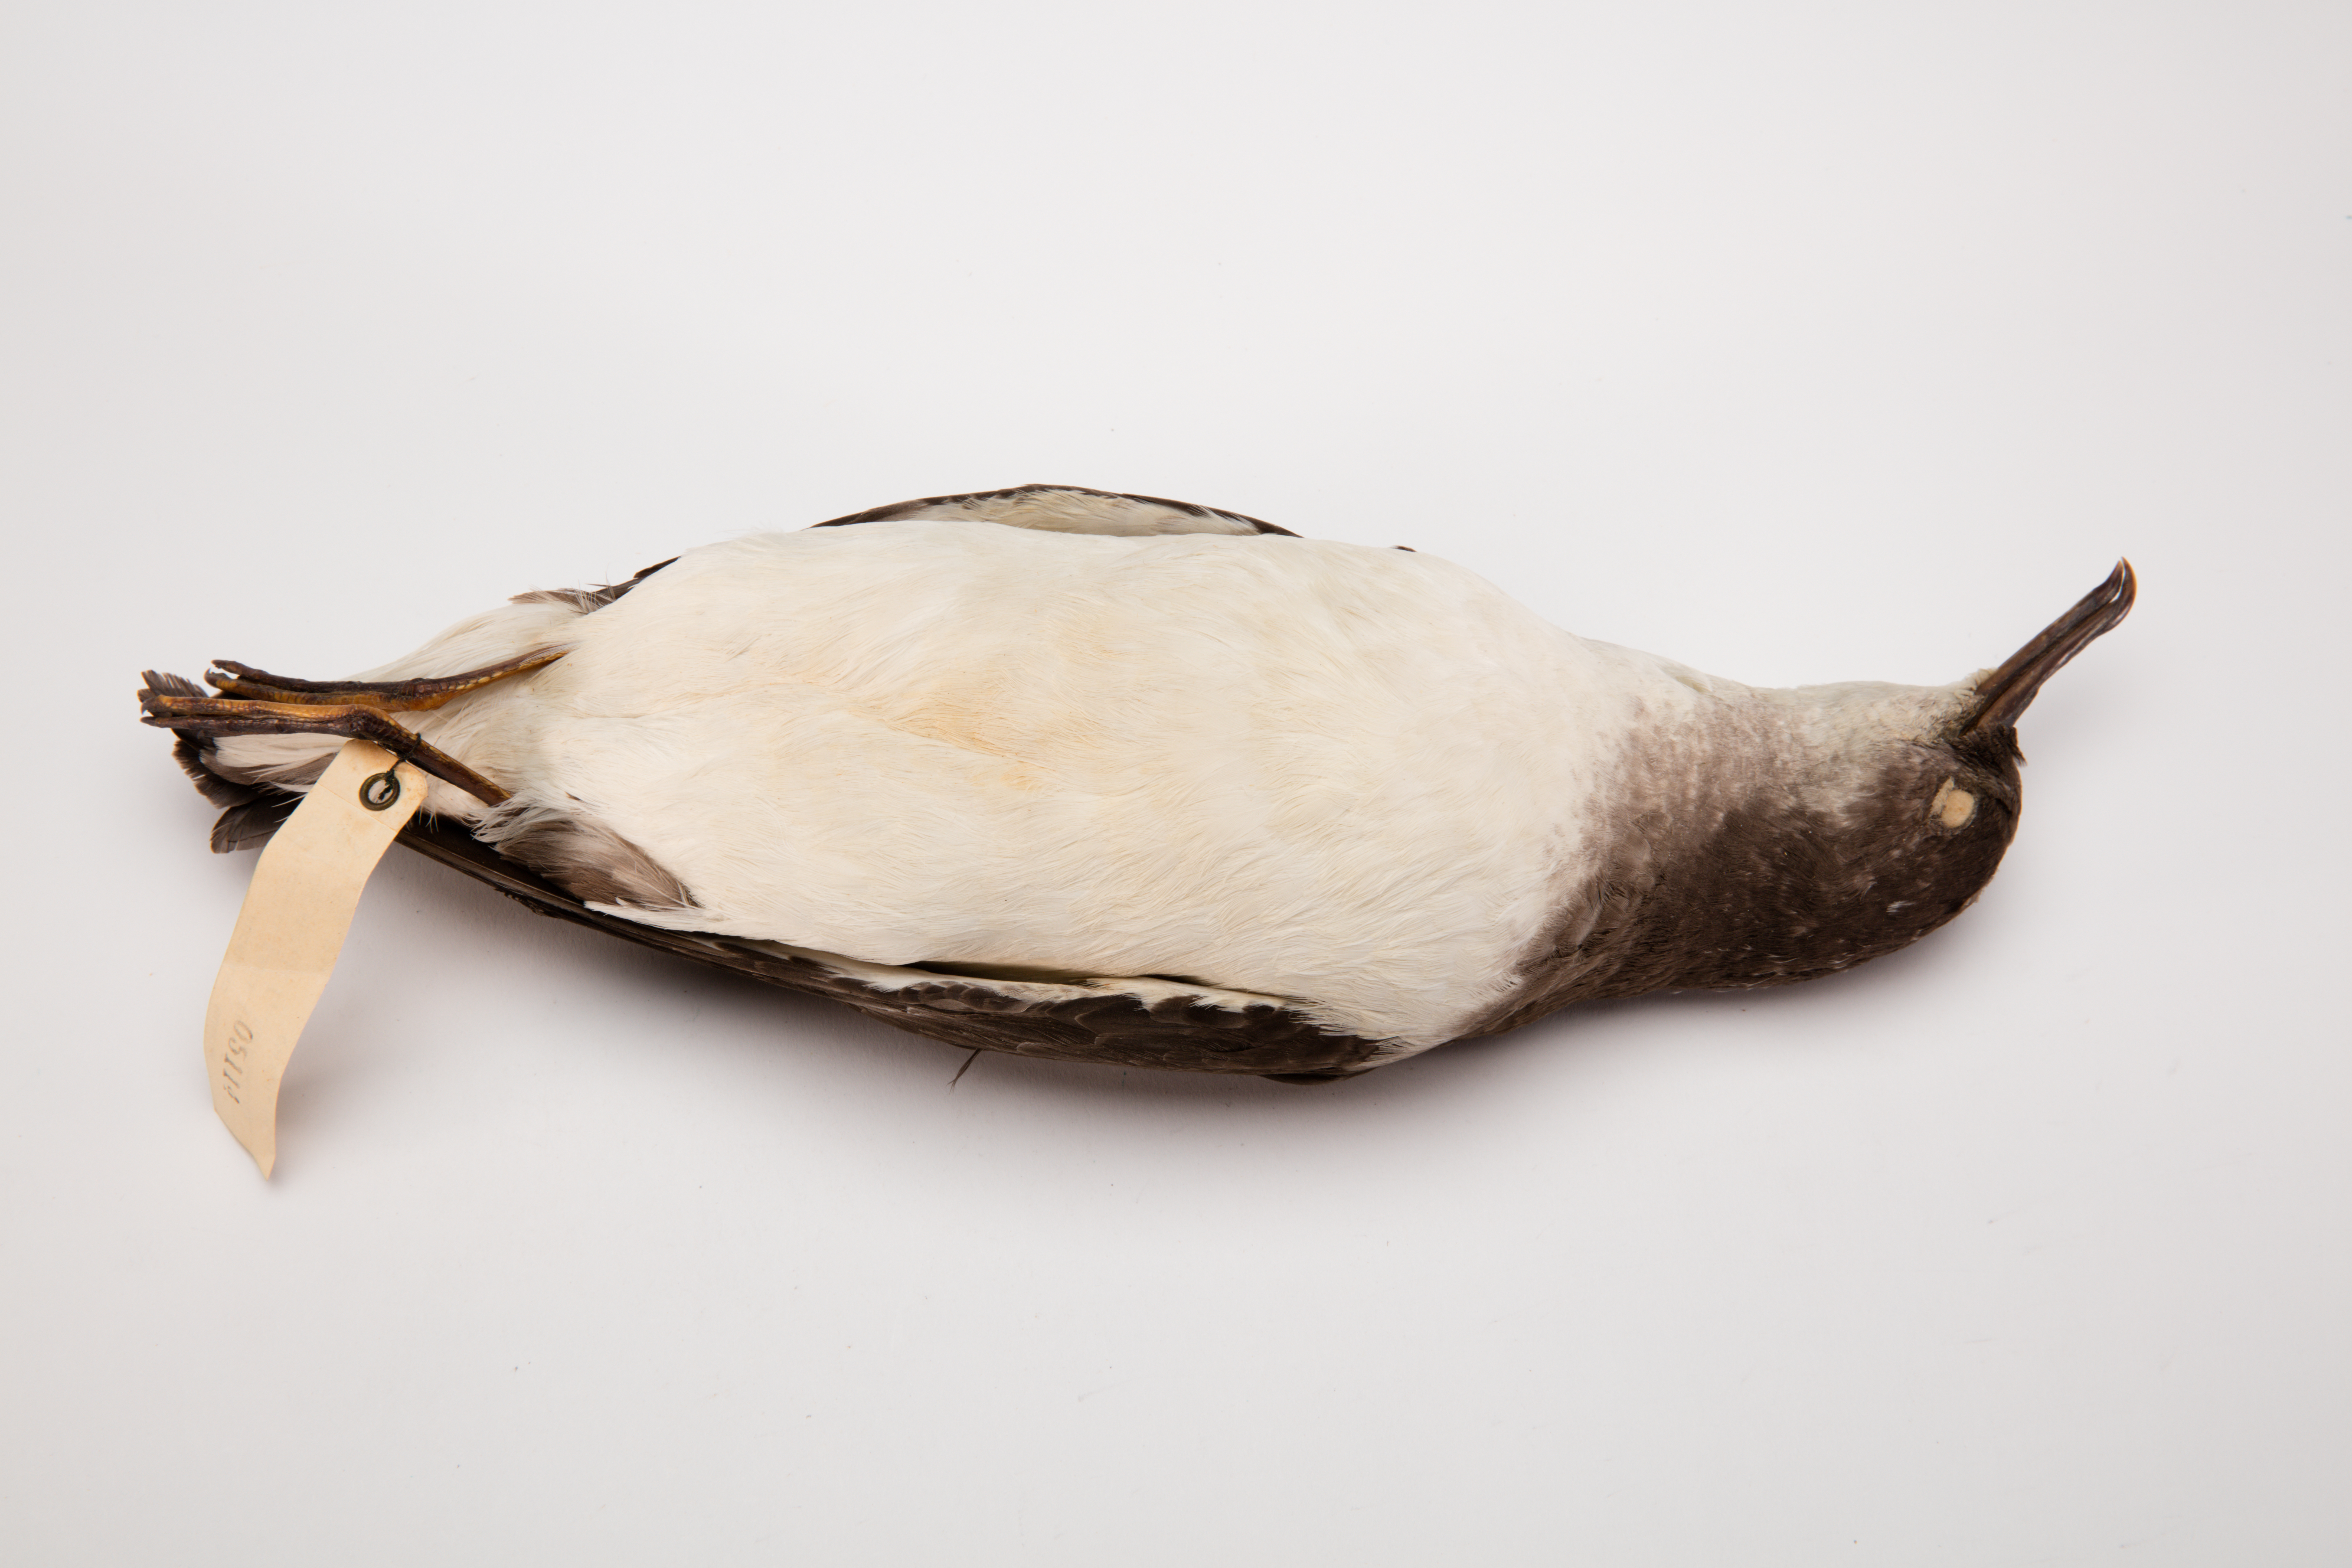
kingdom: Animalia
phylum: Chordata
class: Aves
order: Procellariiformes
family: Procellariidae
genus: Ardenna
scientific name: Ardenna
